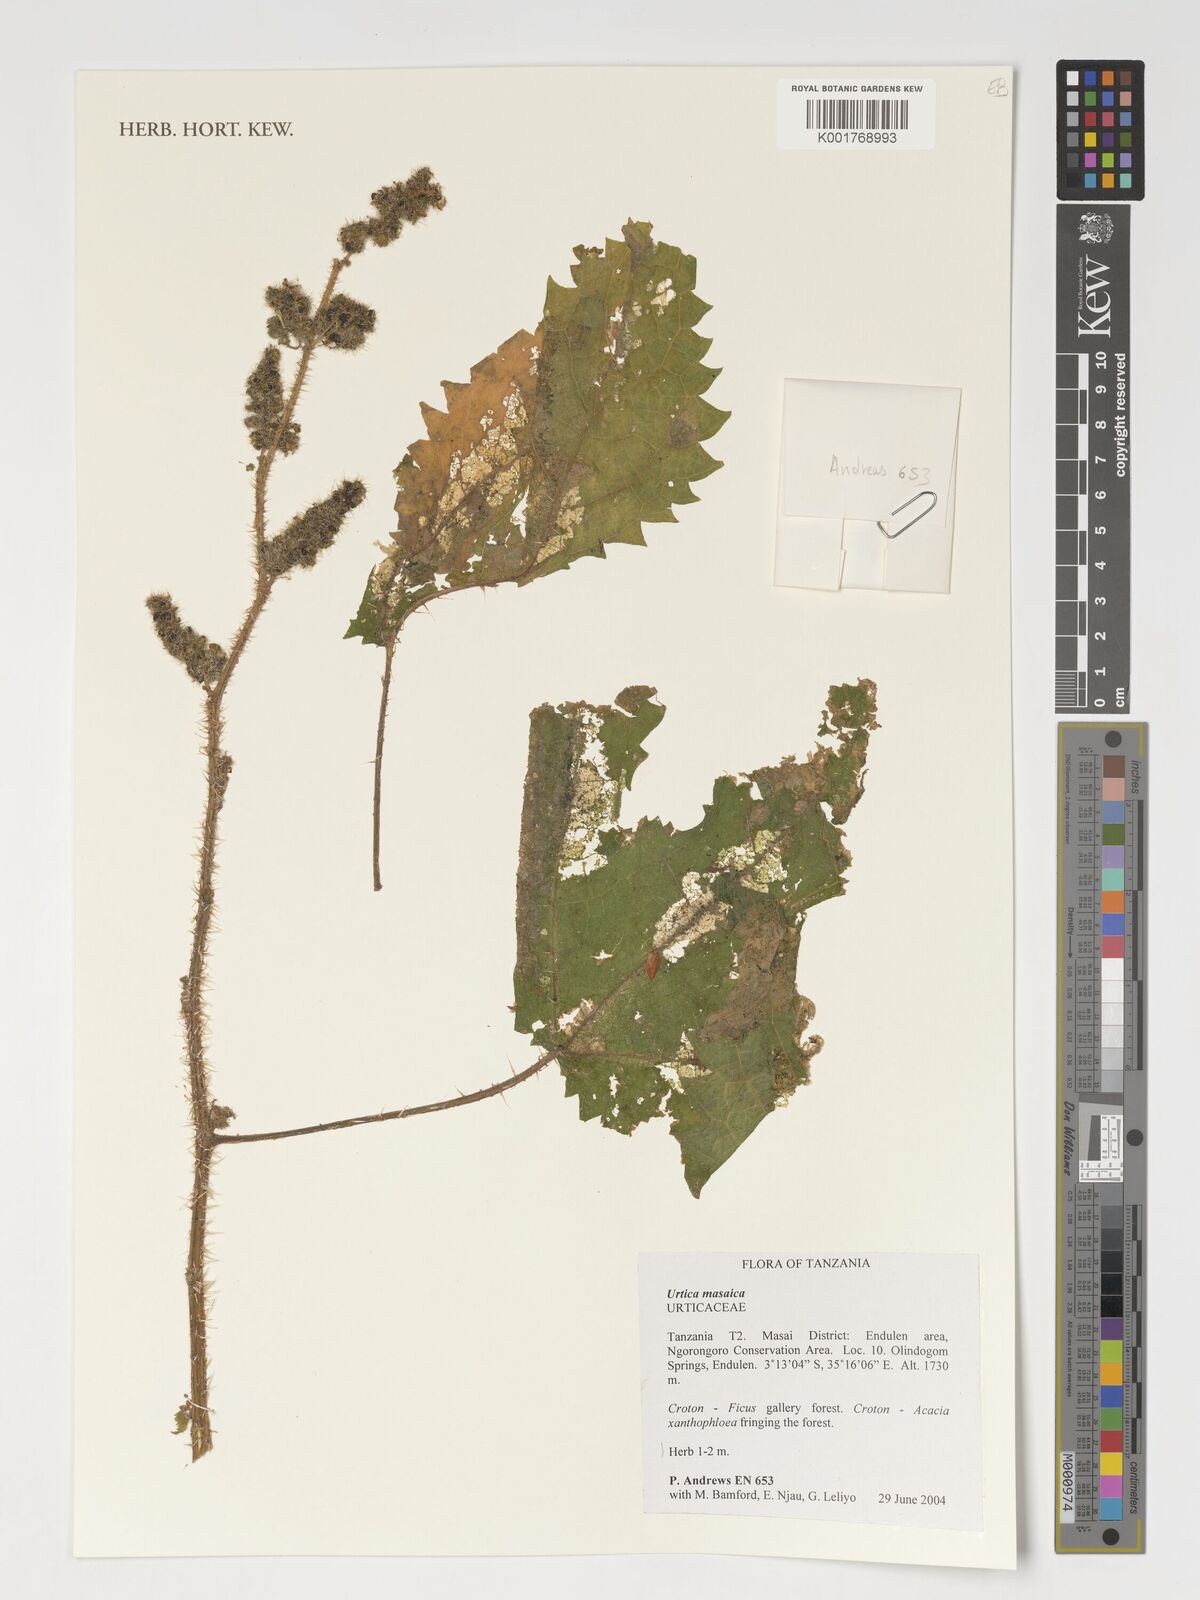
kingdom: Plantae
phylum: Tracheophyta
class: Magnoliopsida
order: Rosales
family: Urticaceae
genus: Urtica
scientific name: Urtica massaica
